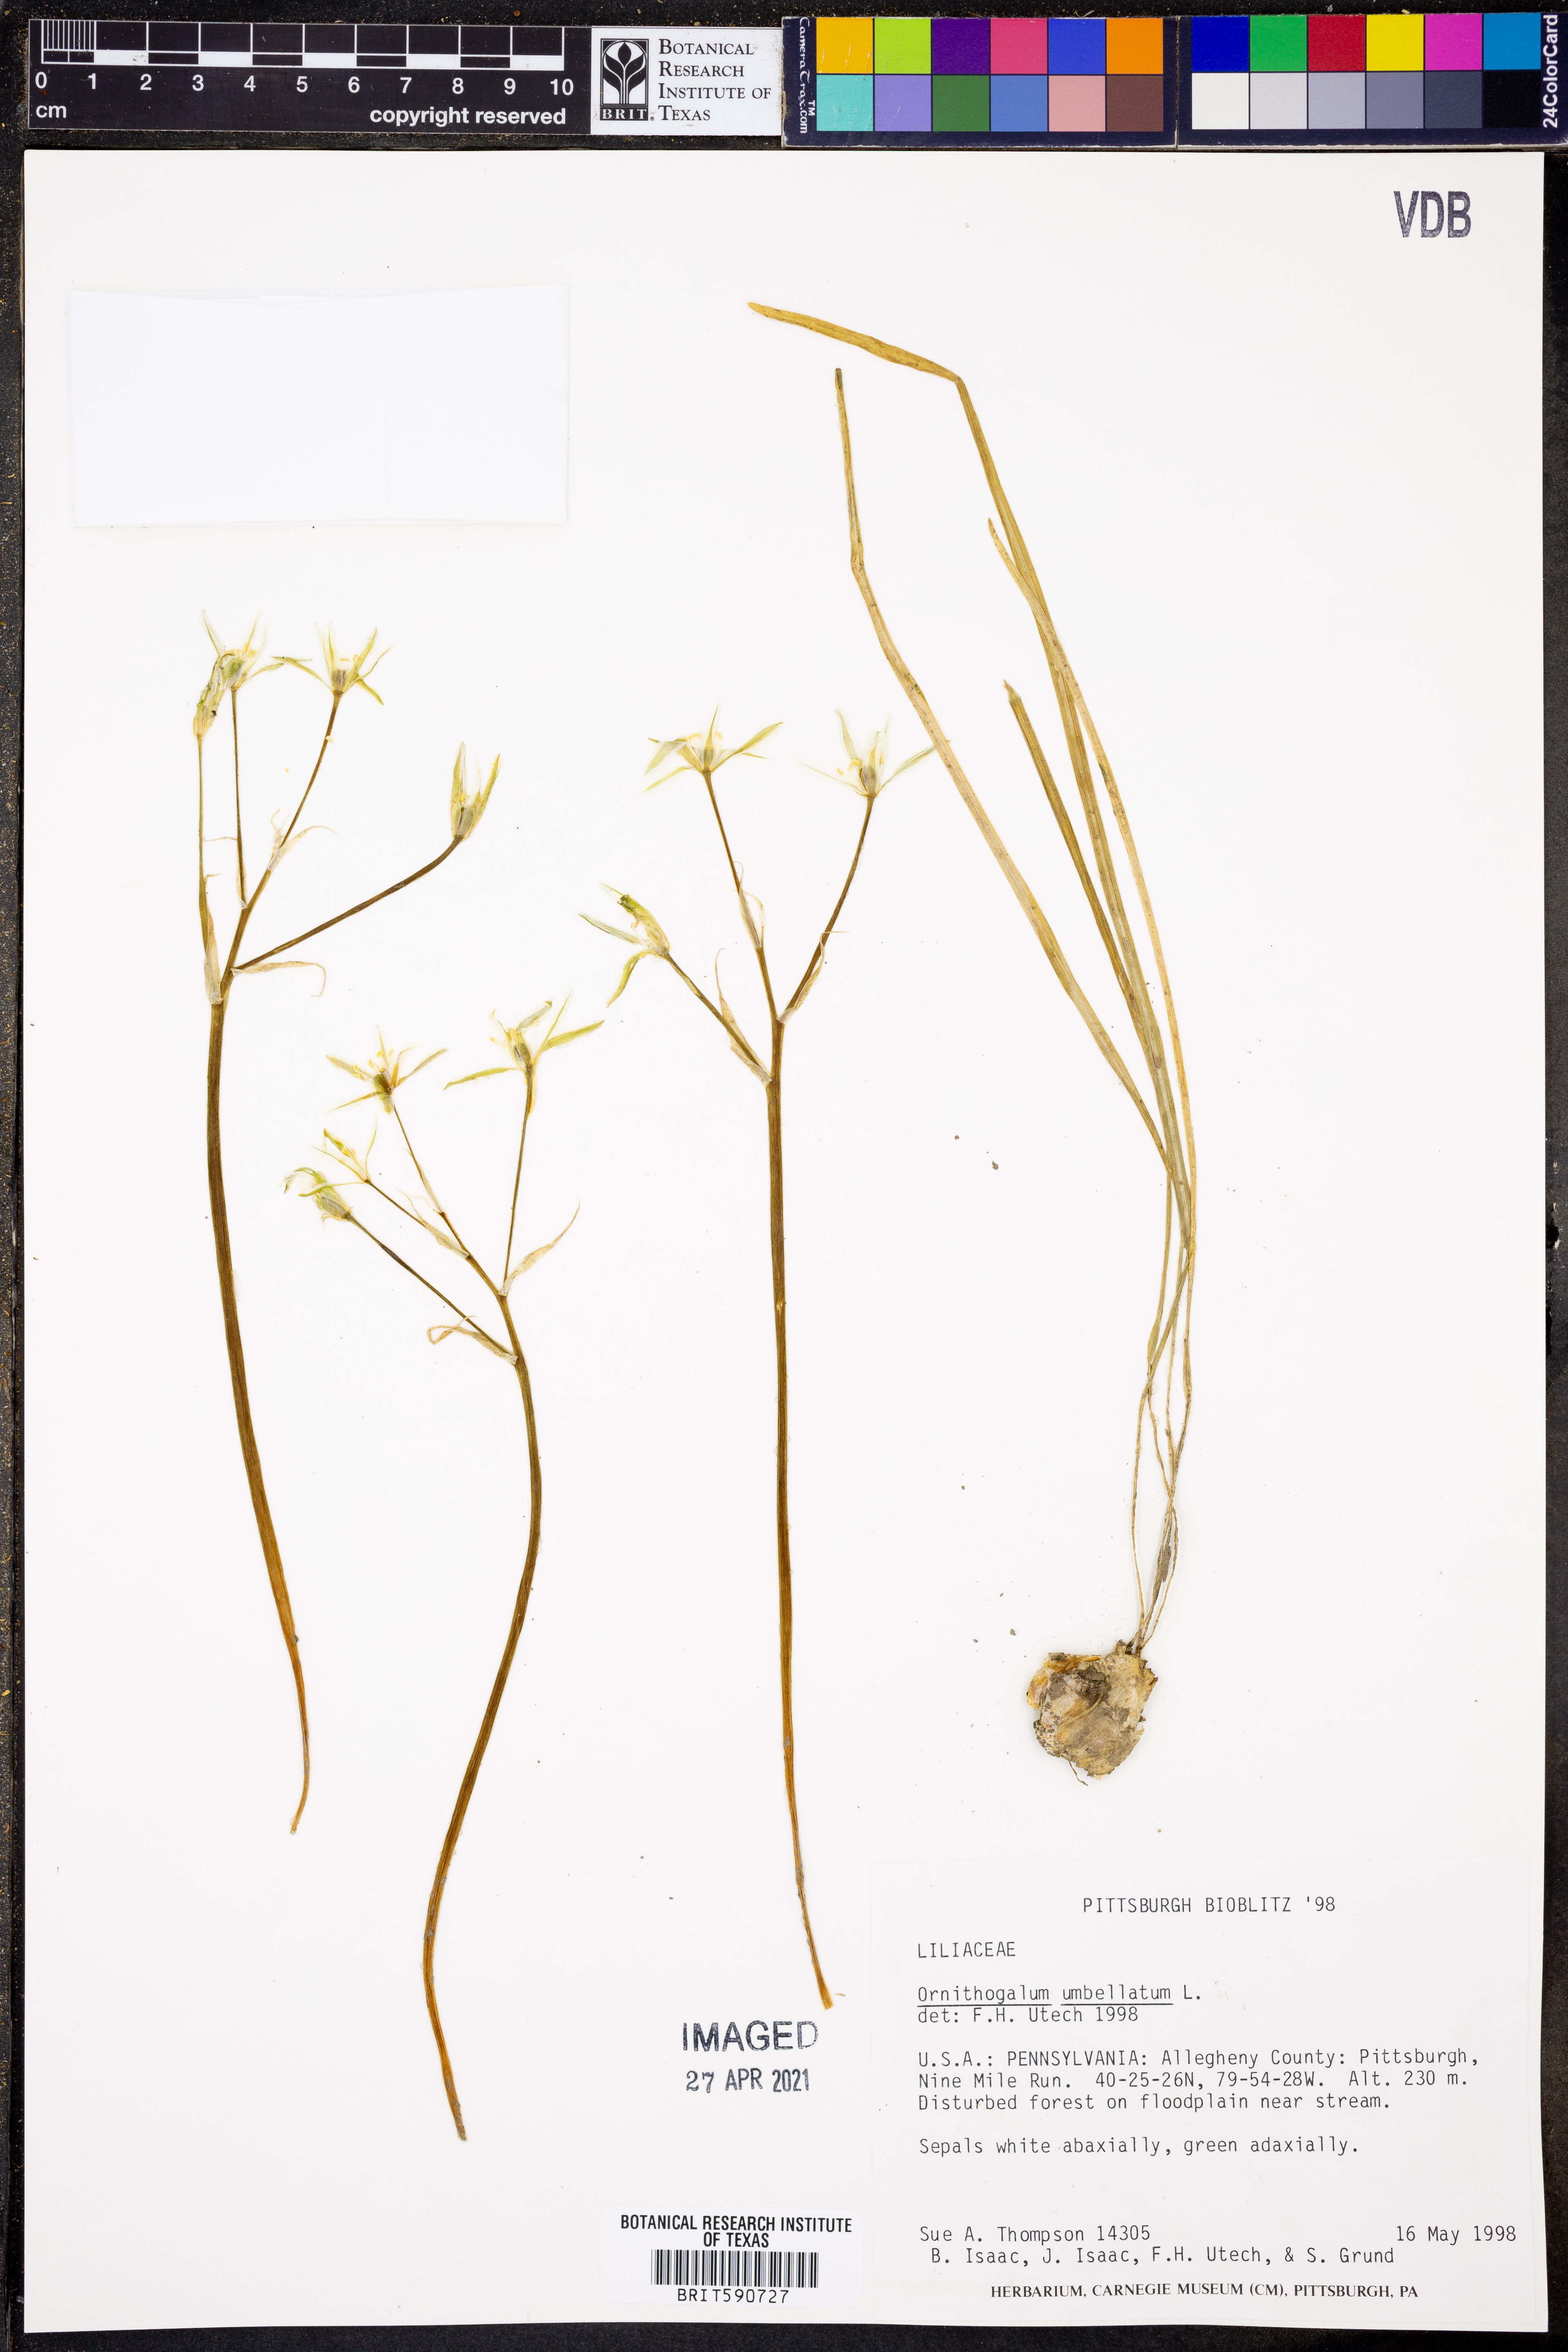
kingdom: Plantae
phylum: Tracheophyta
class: Liliopsida
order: Asparagales
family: Asparagaceae
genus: Ornithogalum
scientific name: Ornithogalum umbellatum
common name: Garden star-of-bethlehem
